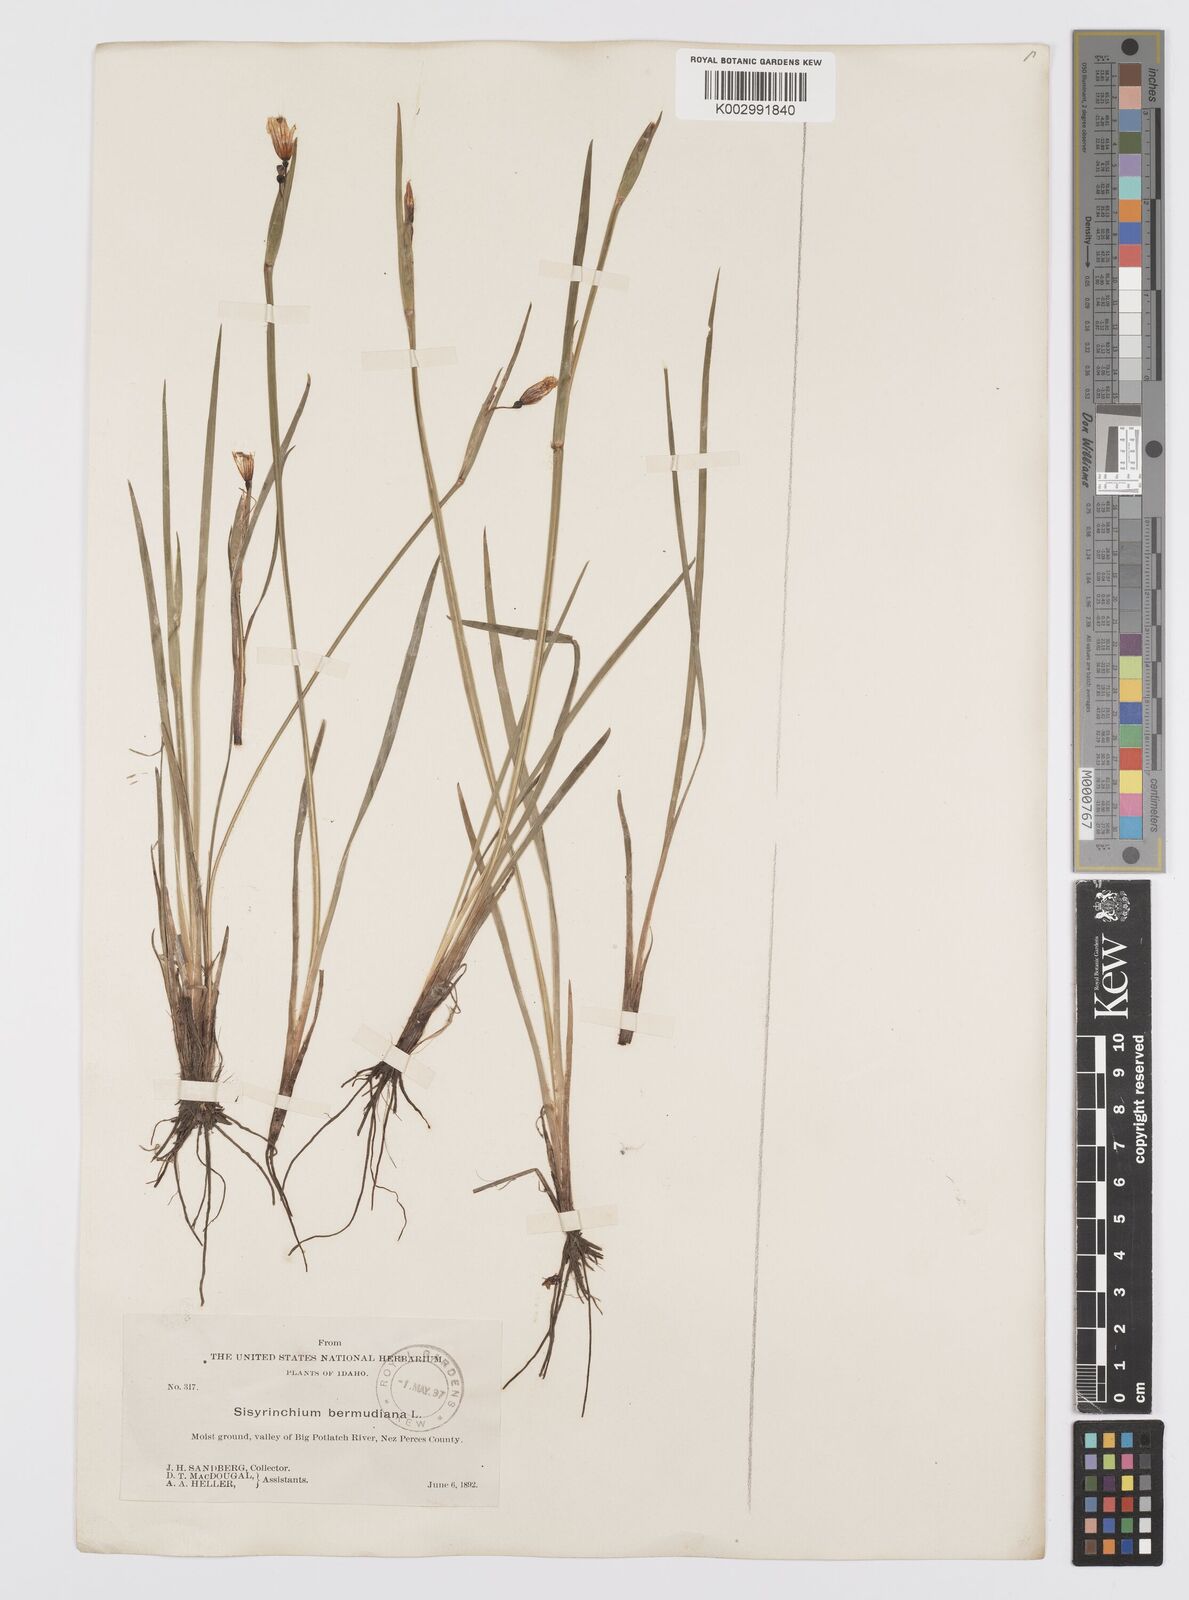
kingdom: Plantae
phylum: Tracheophyta
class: Liliopsida
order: Asparagales
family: Iridaceae
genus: Sisyrinchium
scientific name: Sisyrinchium bermudiana
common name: Blue-eyed-grass
